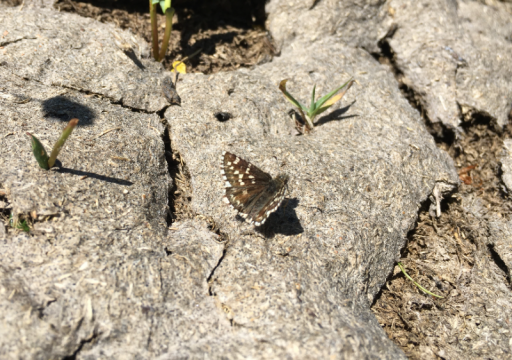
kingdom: Animalia
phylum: Arthropoda
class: Insecta
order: Lepidoptera
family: Hesperiidae
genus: Pyrgus
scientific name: Pyrgus ruralis
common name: Two-banded Checkered-Skipper
